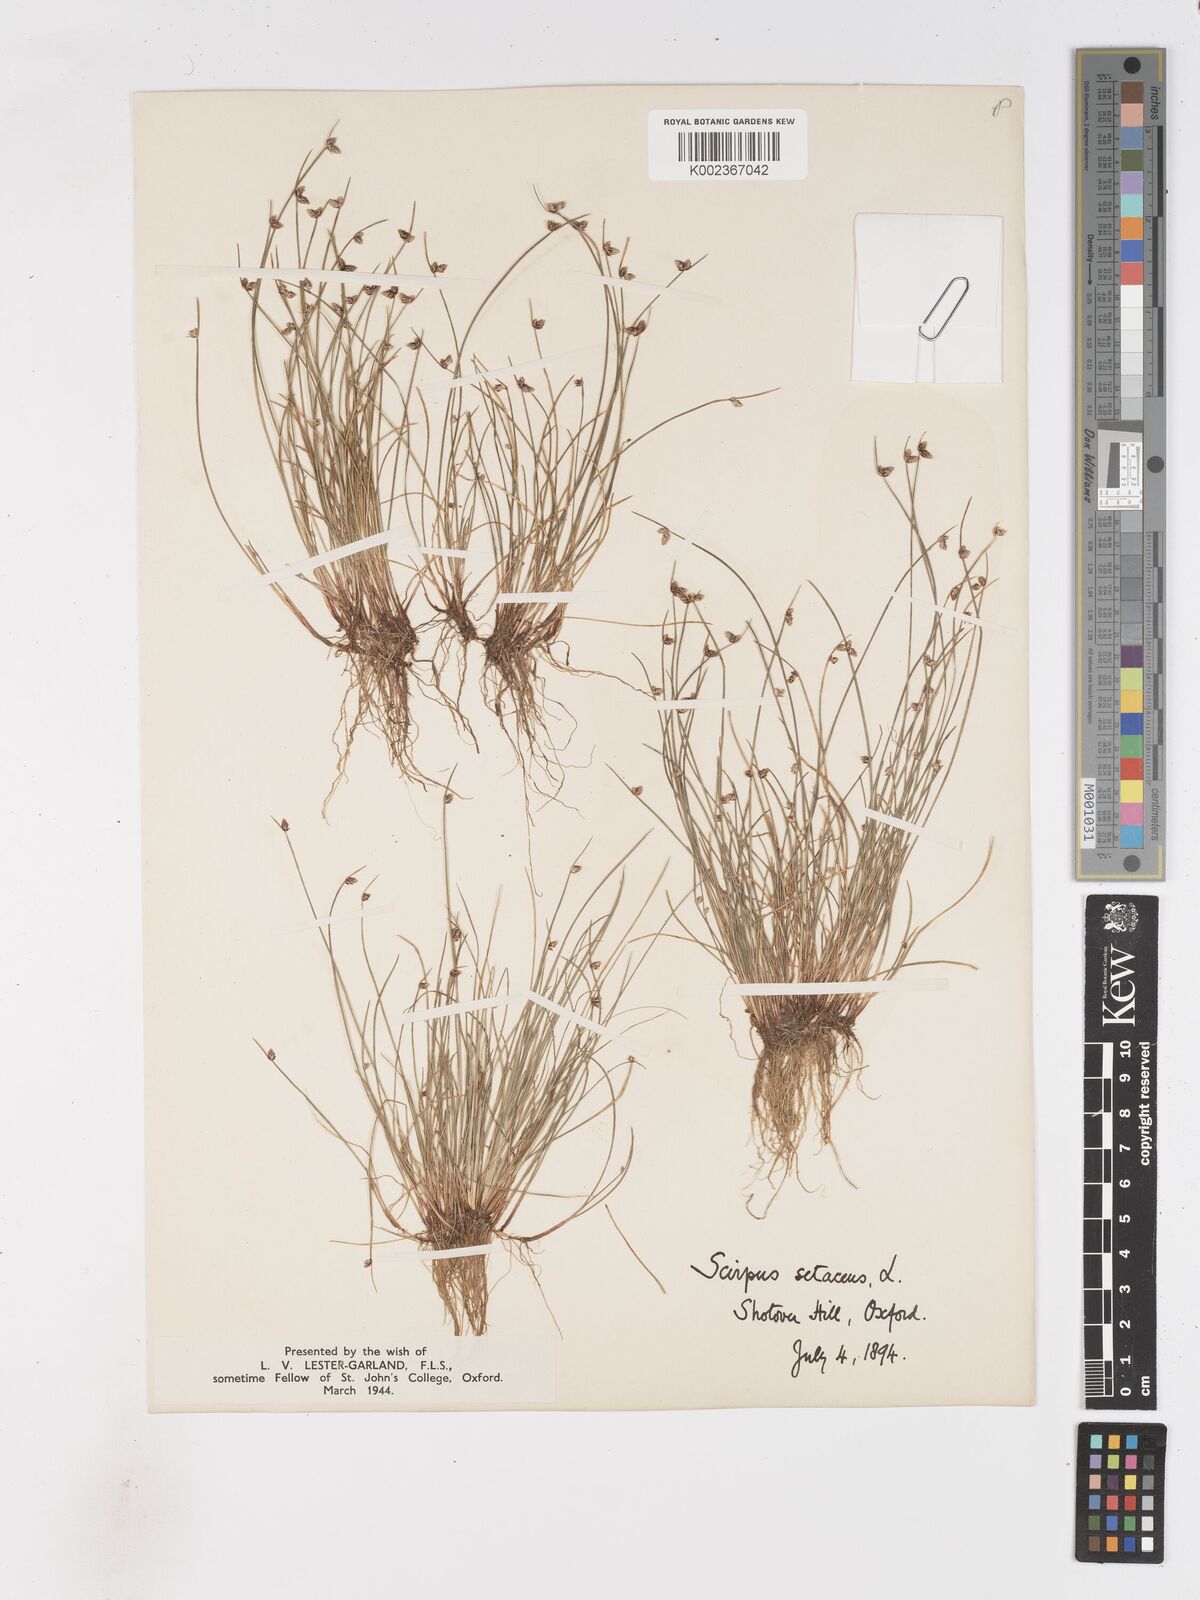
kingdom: Plantae
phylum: Tracheophyta
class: Liliopsida
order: Poales
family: Cyperaceae
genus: Isolepis
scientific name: Isolepis setacea
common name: Bristle club-rush
